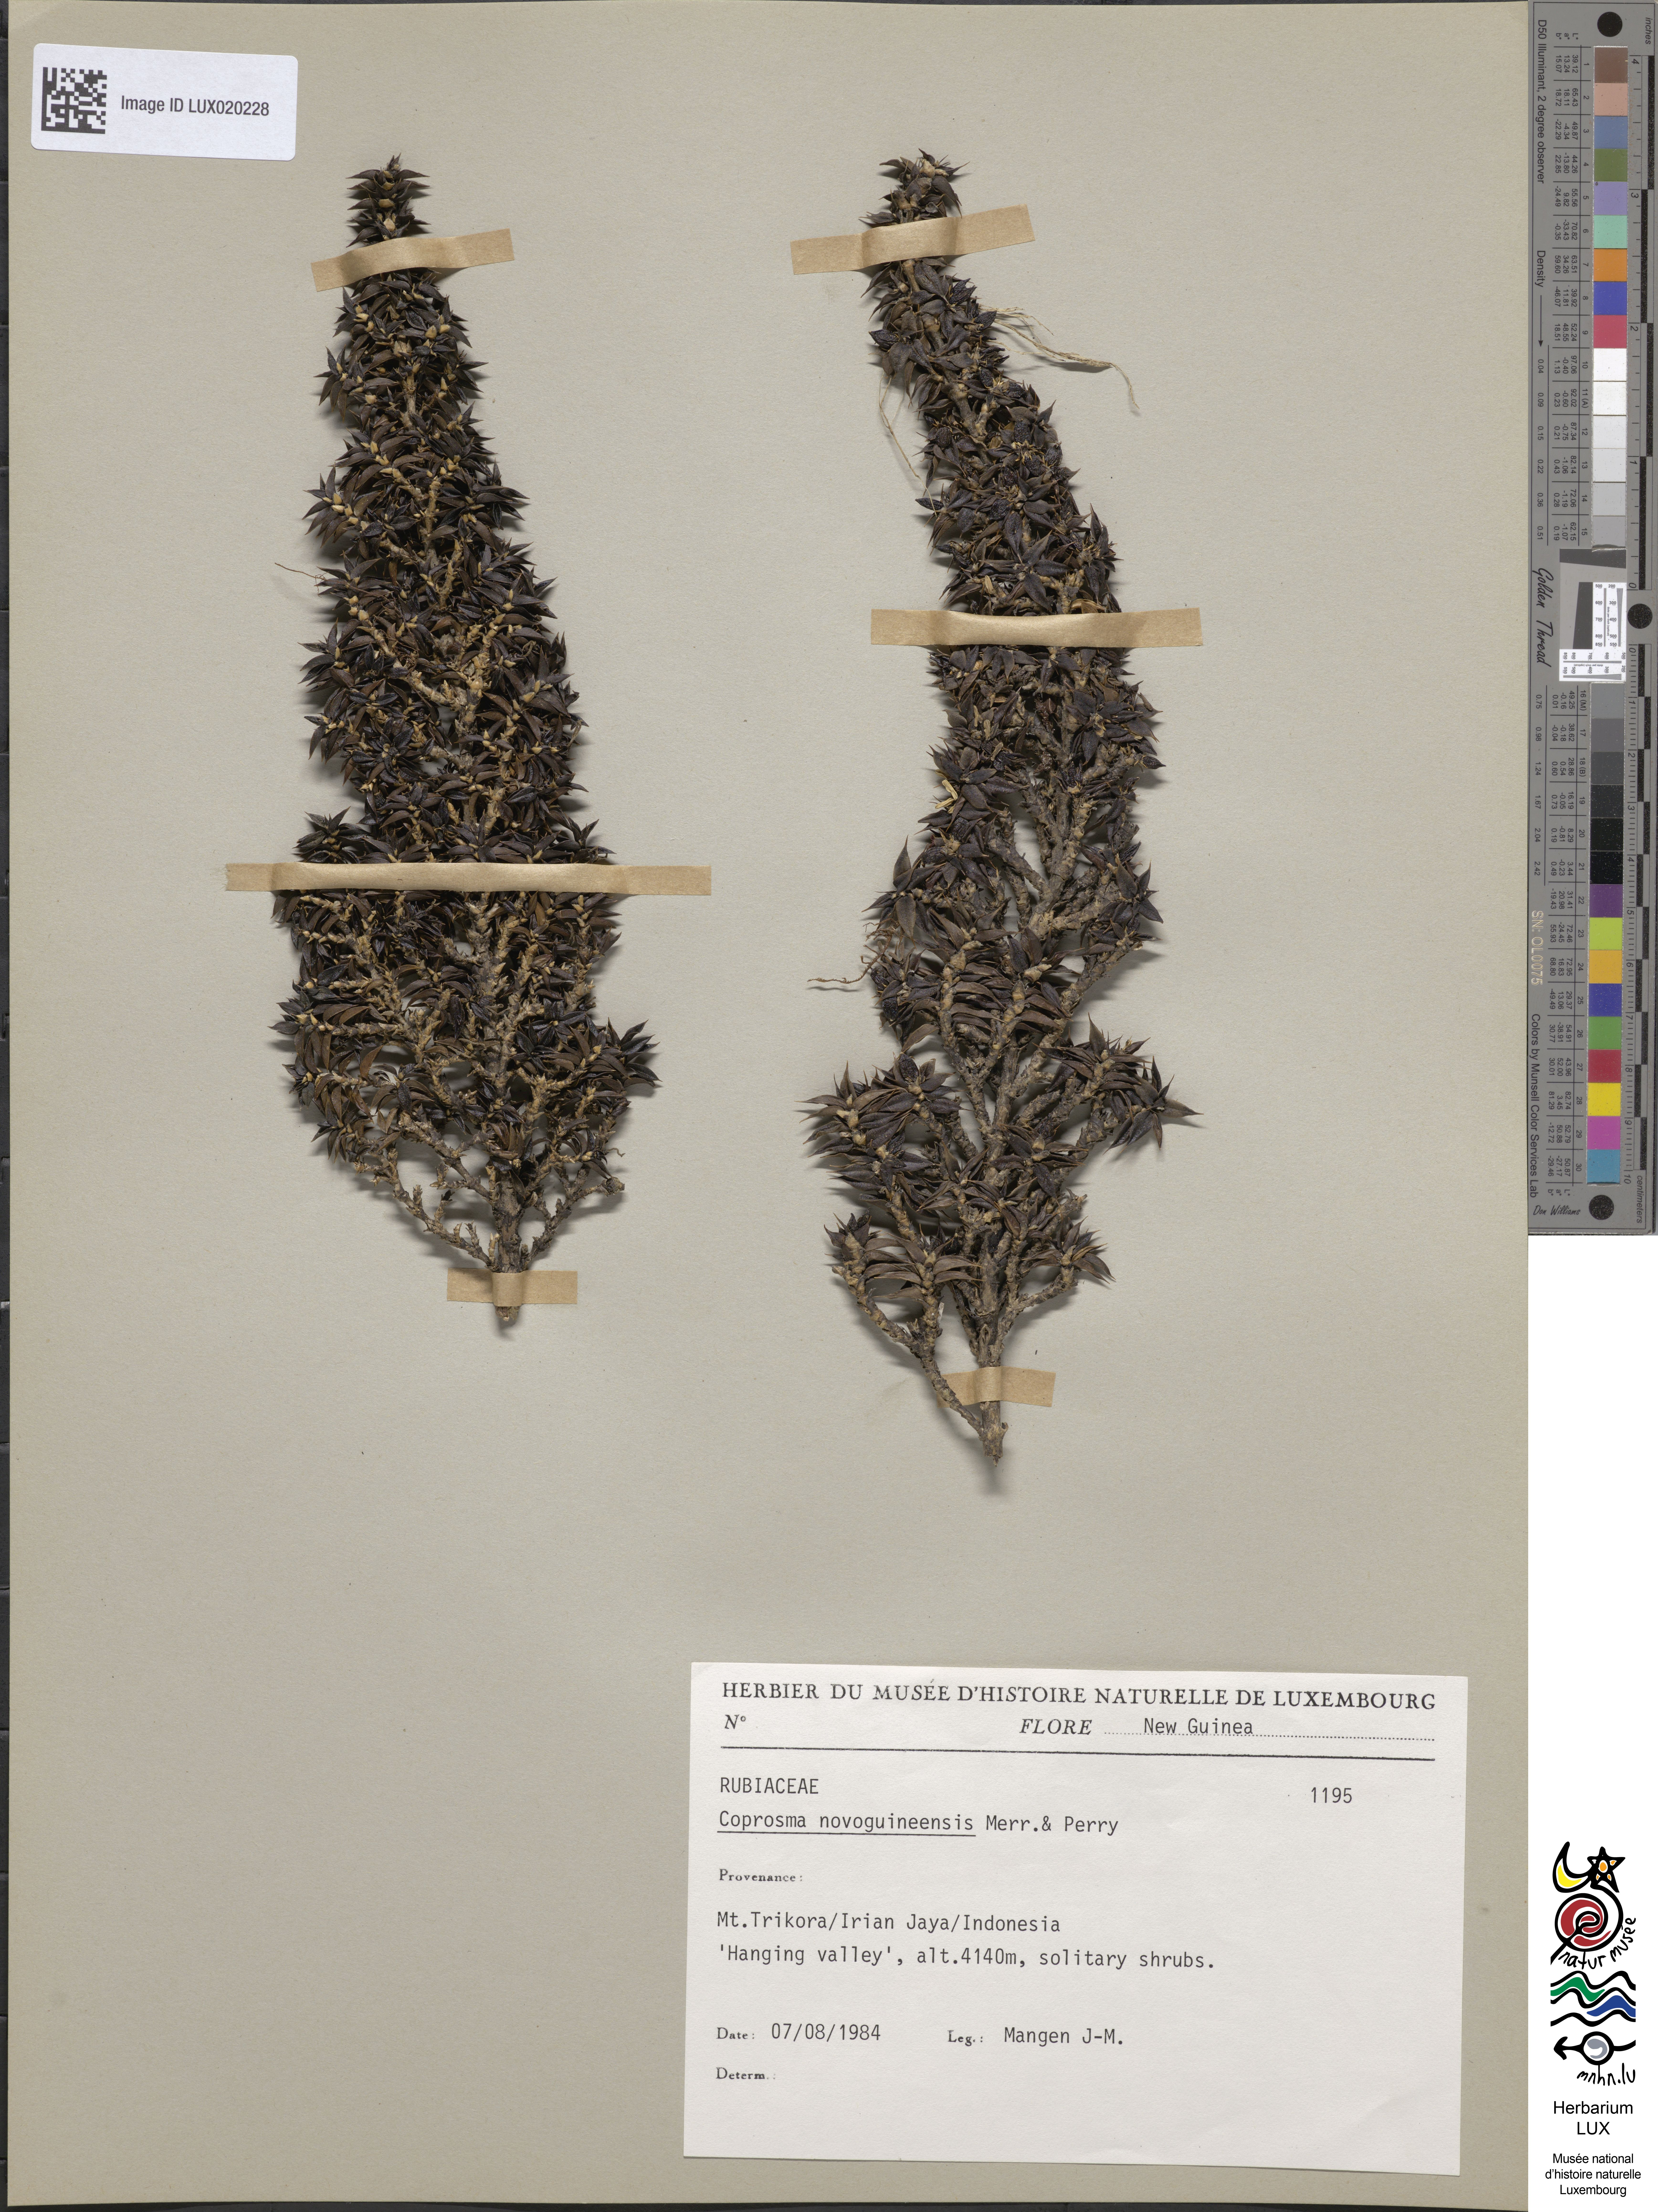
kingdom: Plantae
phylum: Tracheophyta
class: Magnoliopsida
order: Gentianales
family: Rubiaceae
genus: Coprosma
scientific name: Coprosma wollastonii
